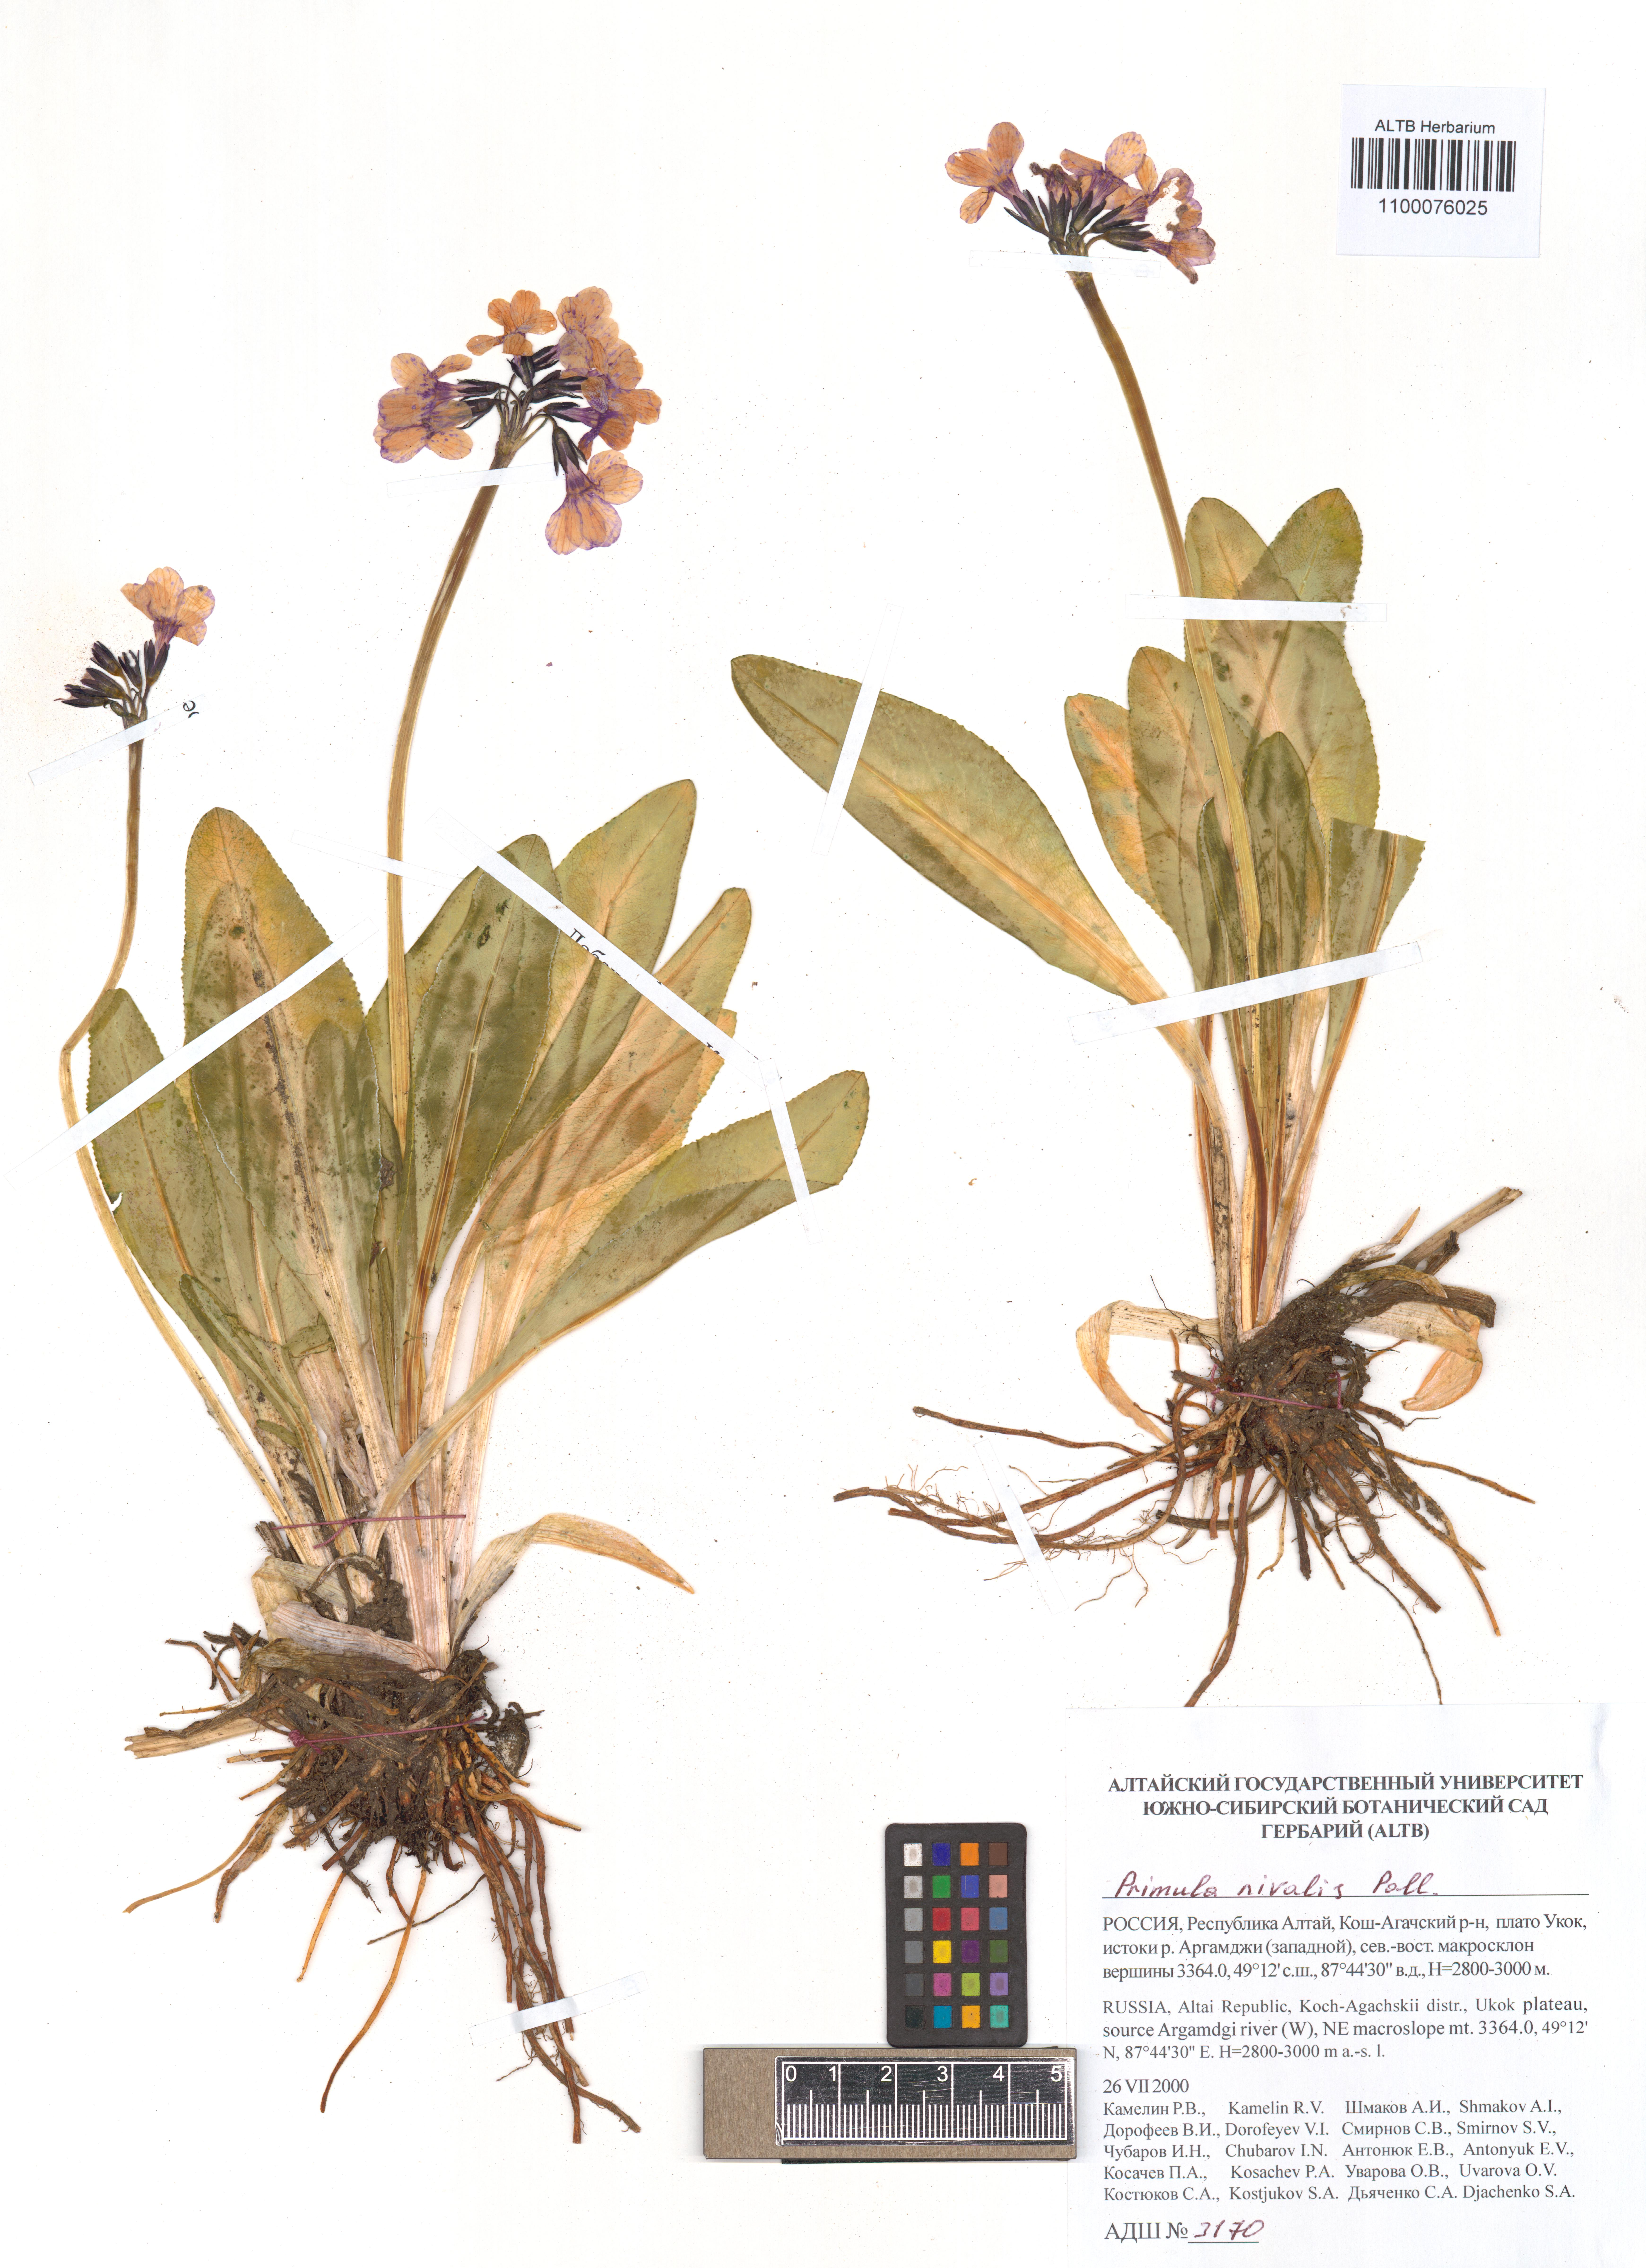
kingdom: Plantae
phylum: Tracheophyta
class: Magnoliopsida
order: Ericales
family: Primulaceae
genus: Primula
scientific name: Primula nivalis
